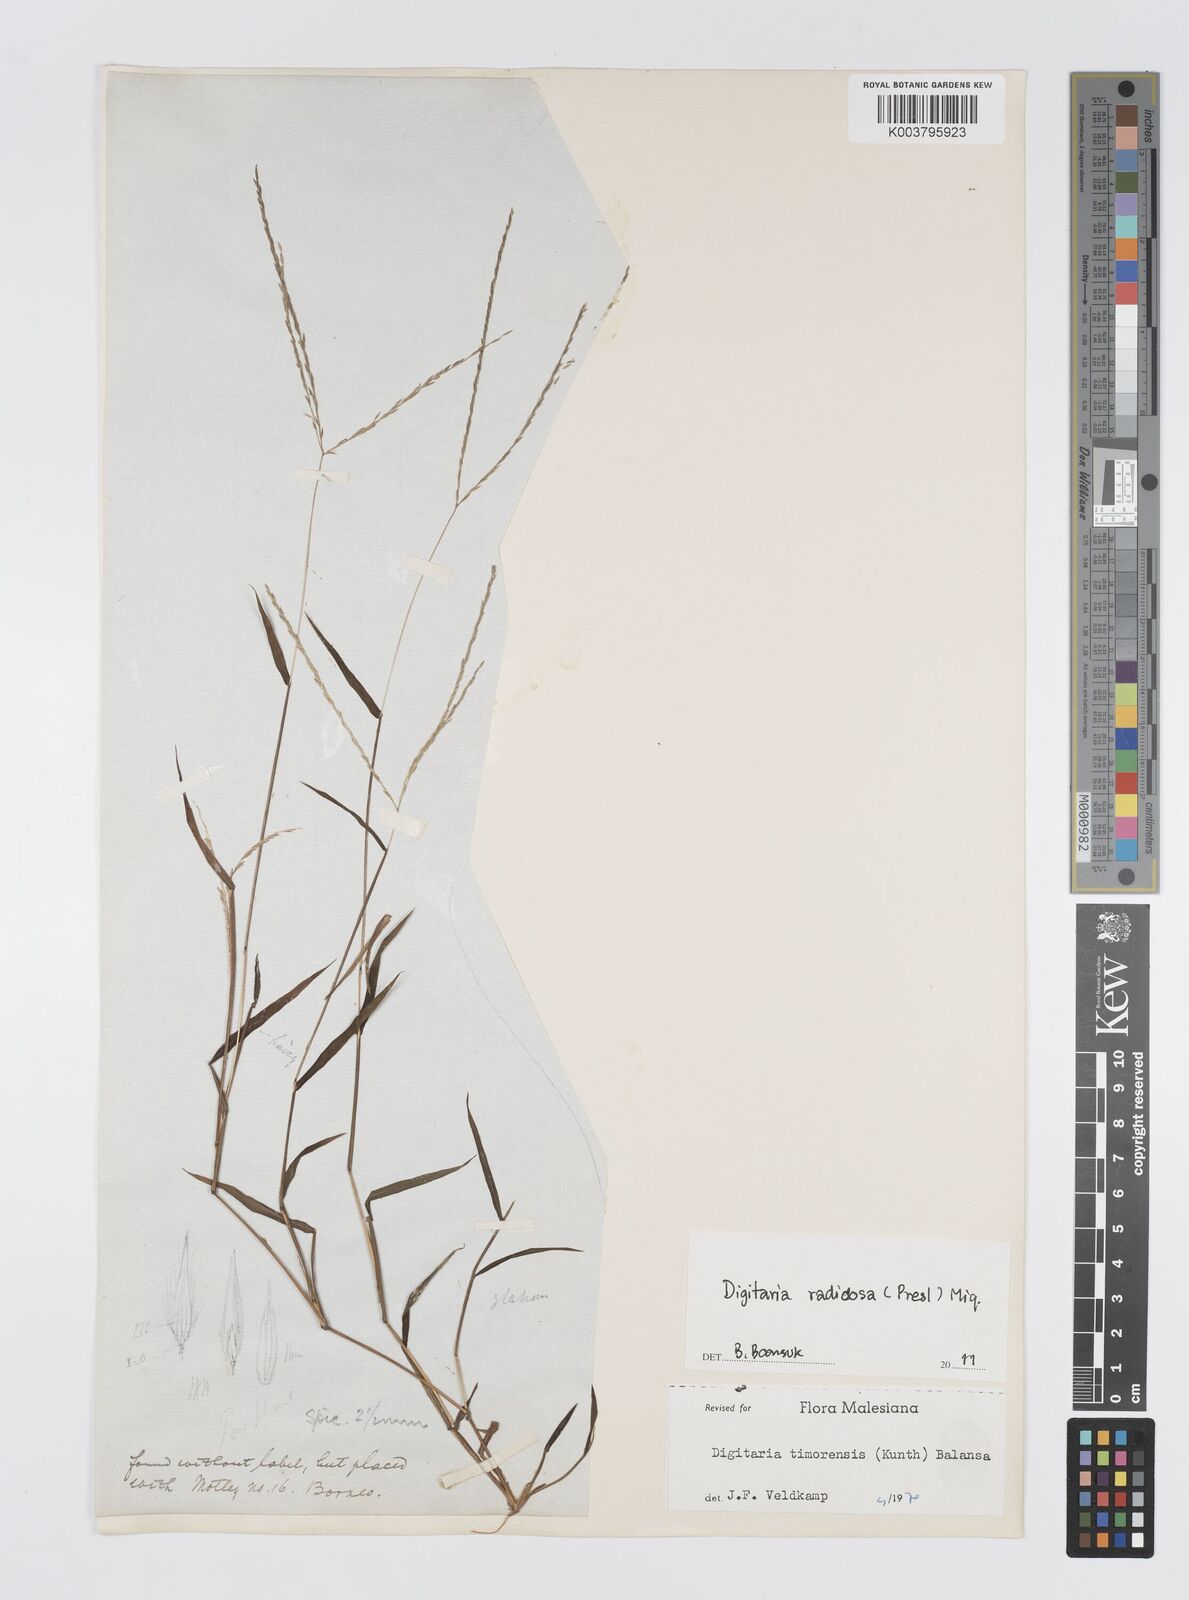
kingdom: Plantae
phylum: Tracheophyta
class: Liliopsida
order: Poales
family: Poaceae
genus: Digitaria
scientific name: Digitaria radicosa
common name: Trailing crabgrass
